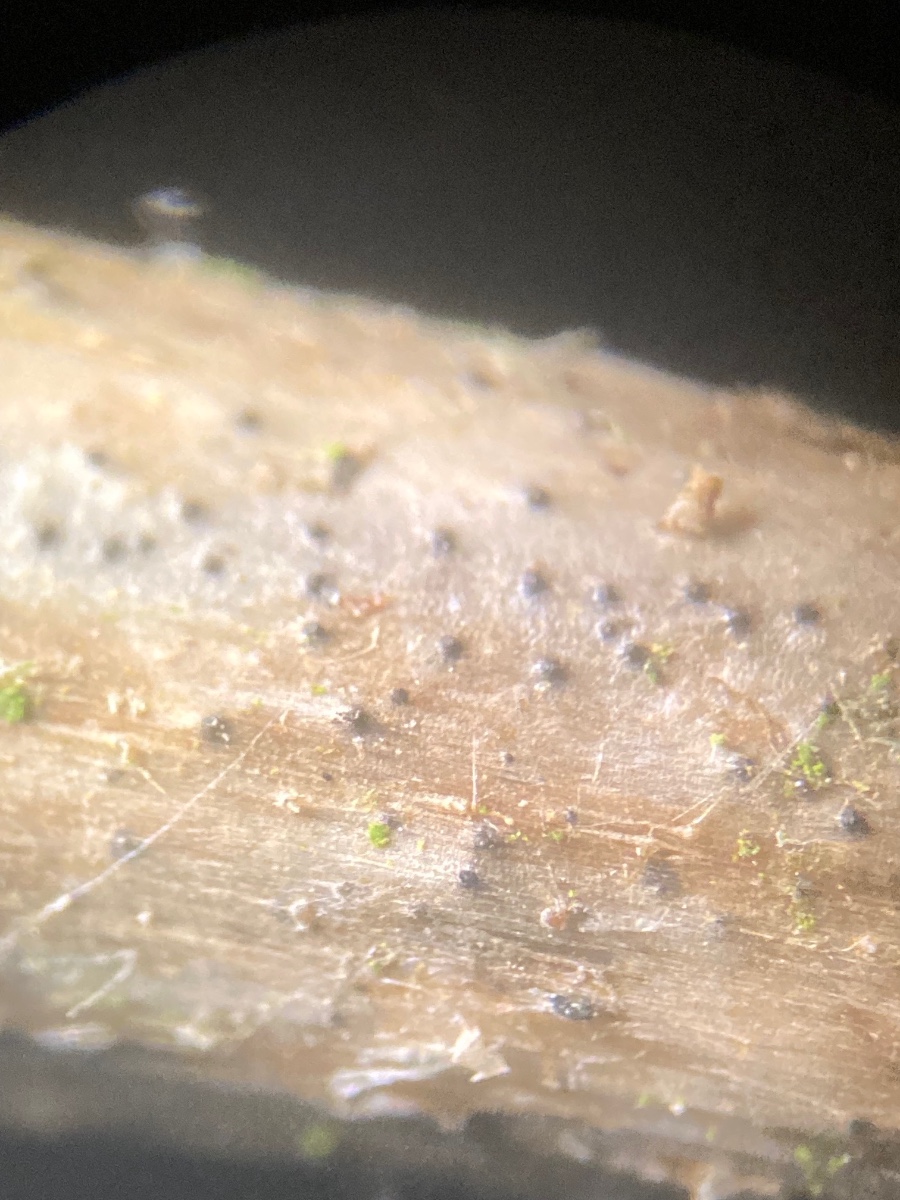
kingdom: Fungi
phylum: Ascomycota
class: Dothideomycetes
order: Pleosporales
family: Leptosphaeriaceae
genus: Leptosphaeria
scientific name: Leptosphaeria acuta
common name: spids kulkegle
